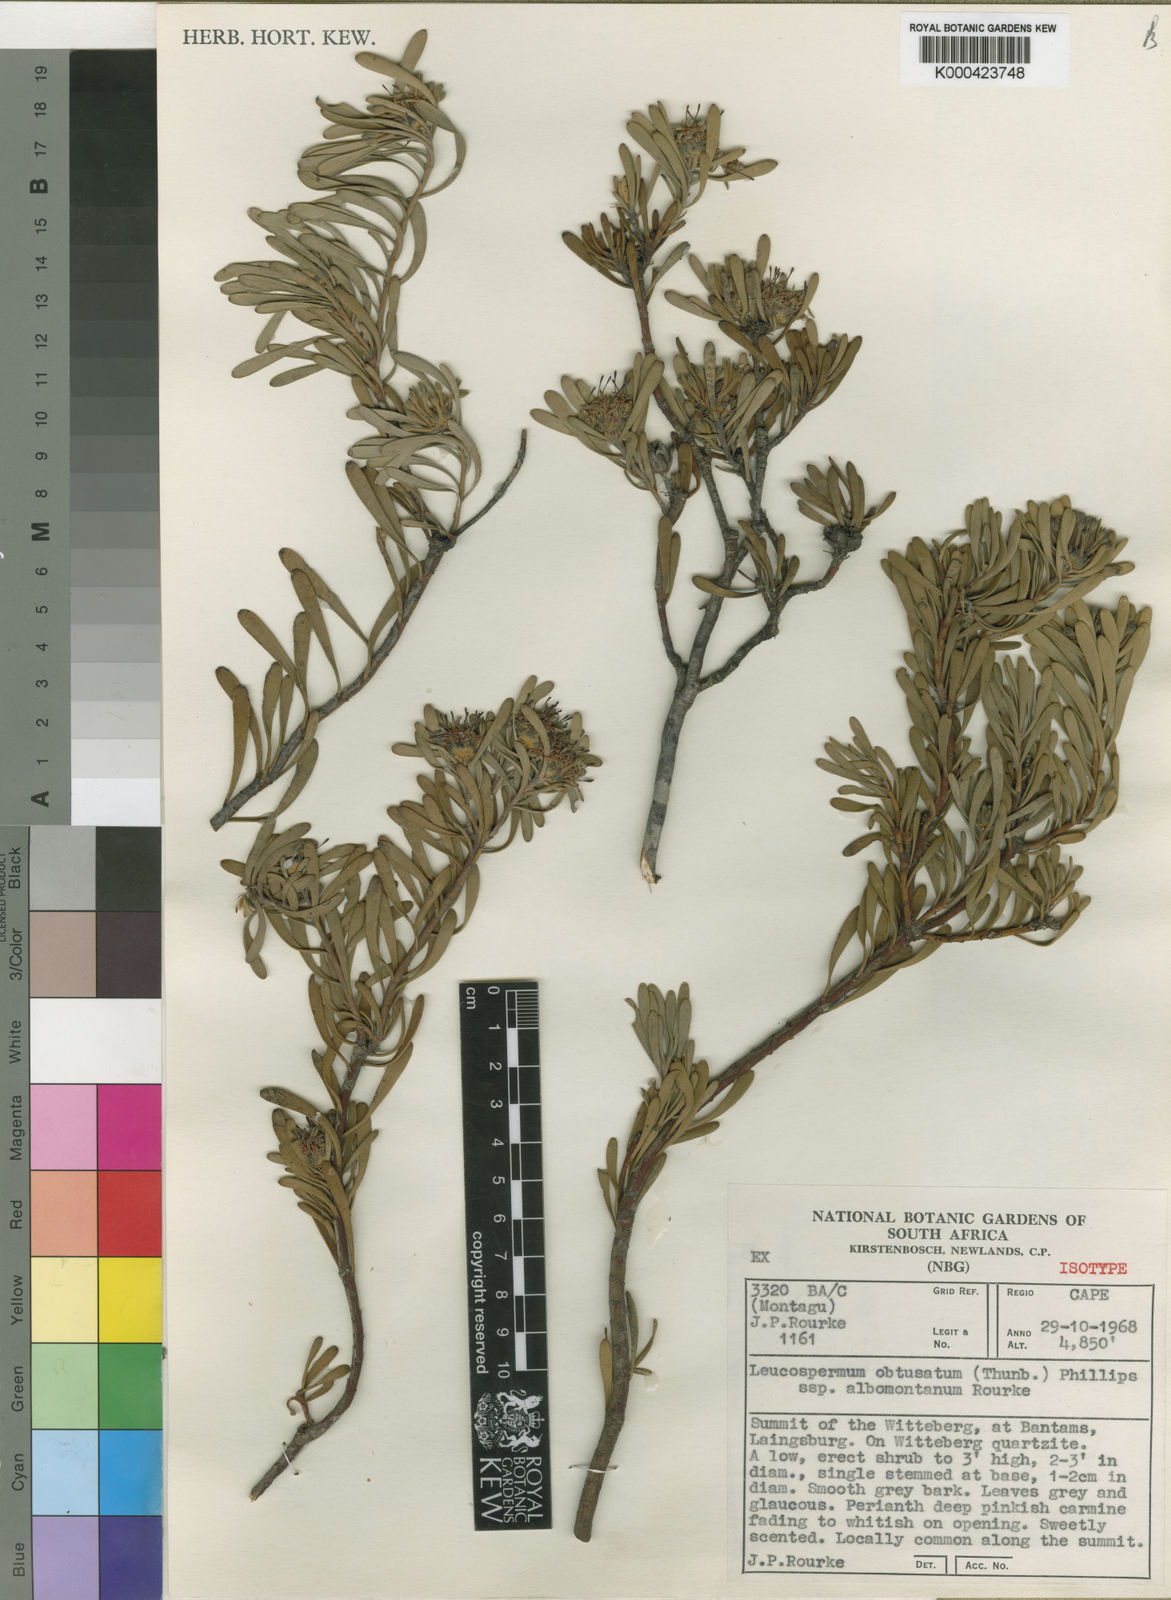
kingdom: Plantae
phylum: Tracheophyta
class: Magnoliopsida
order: Proteales
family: Proteaceae
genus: Vexatorella
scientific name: Vexatorella obtusata
